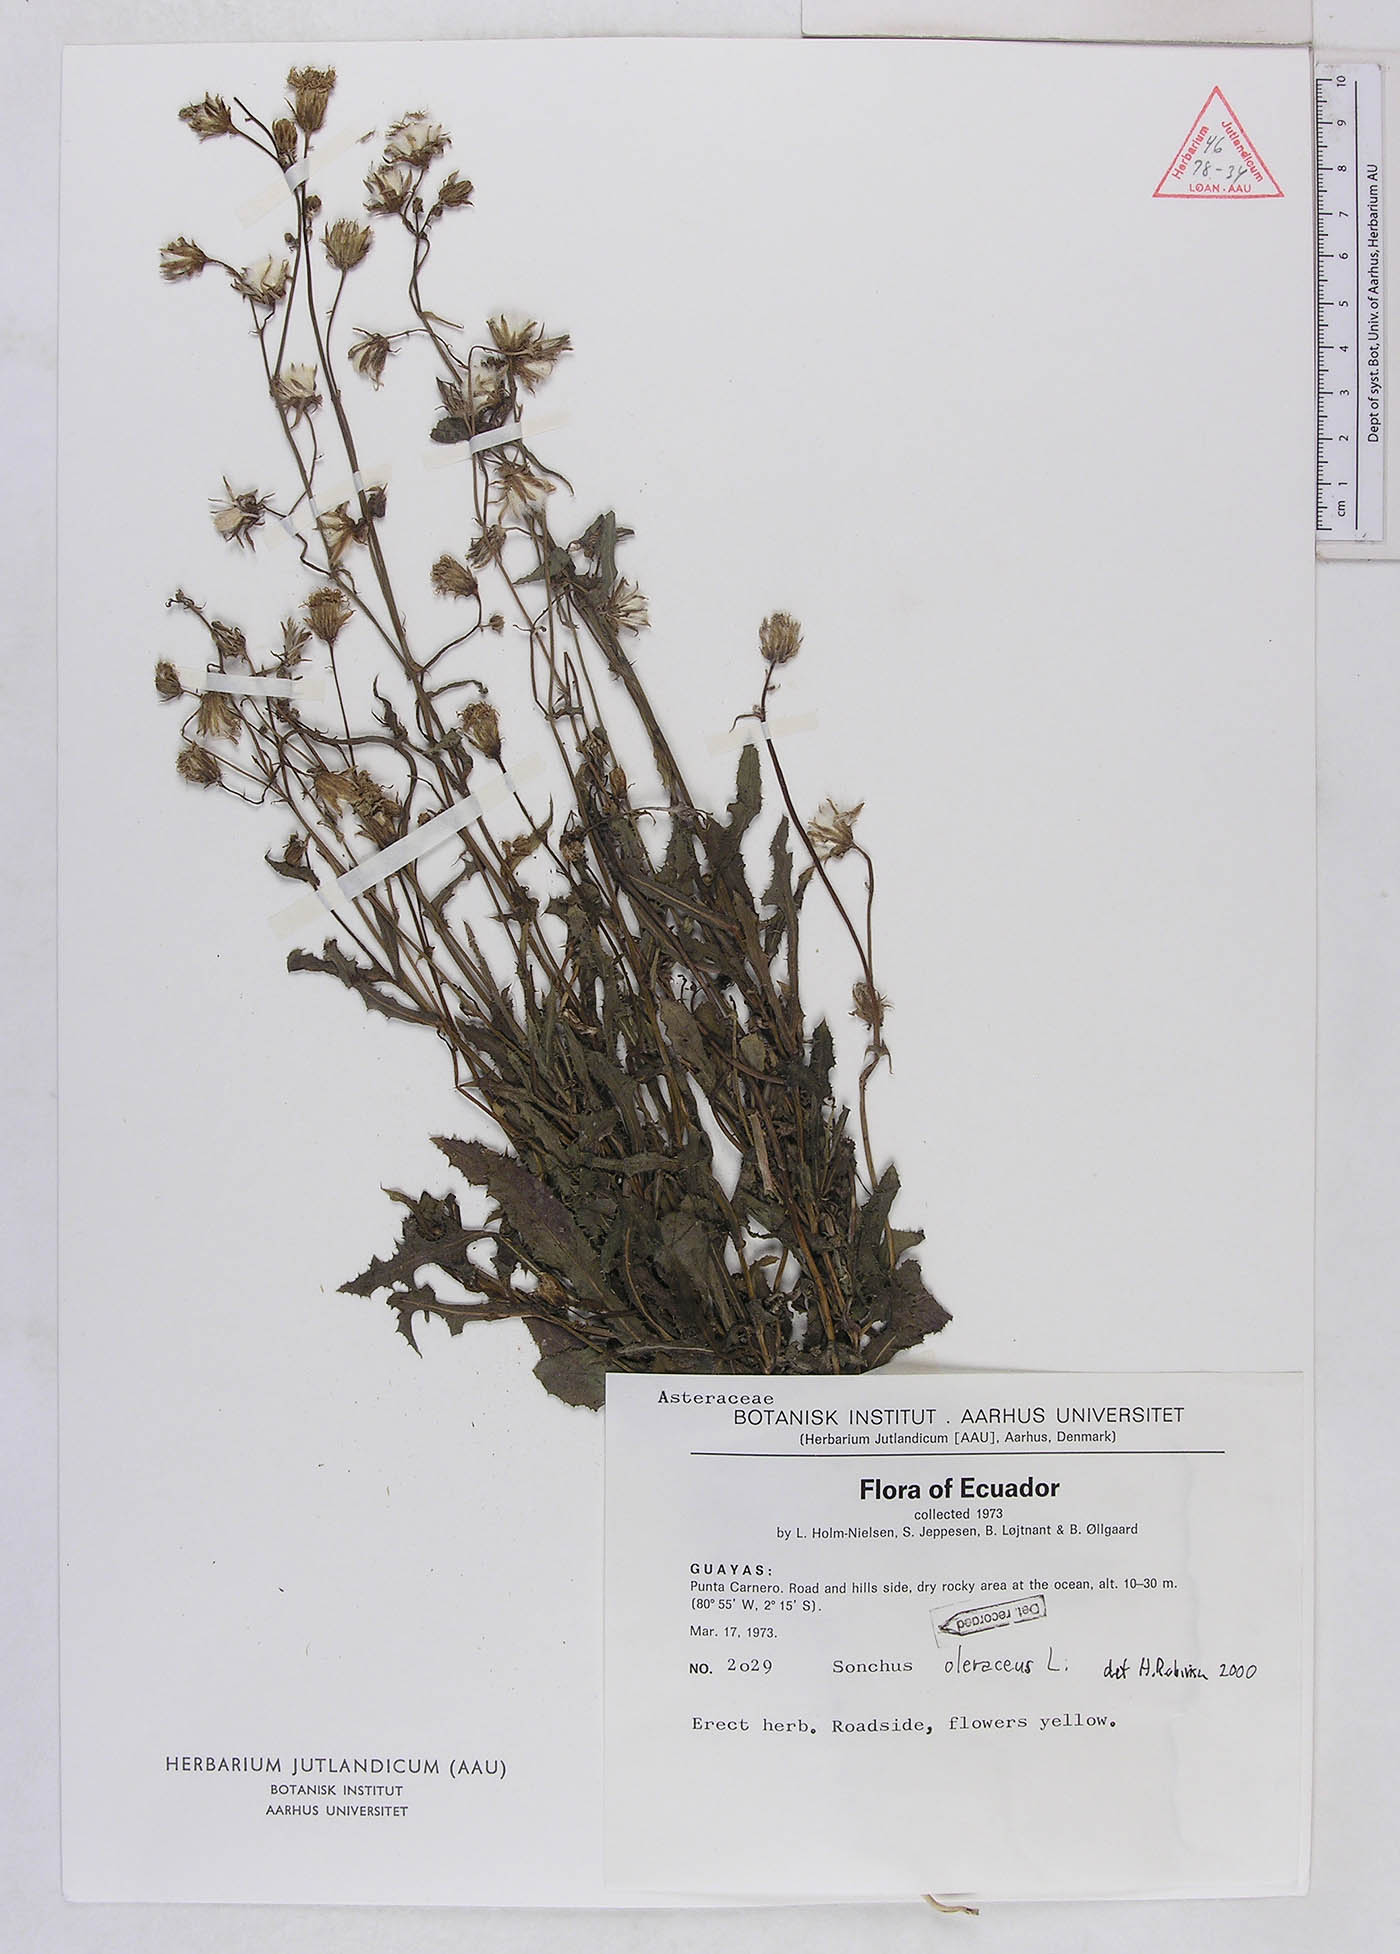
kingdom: Plantae
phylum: Tracheophyta
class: Magnoliopsida
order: Asterales
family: Asteraceae
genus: Sonchus
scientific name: Sonchus oleraceus
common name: Common sowthistle
